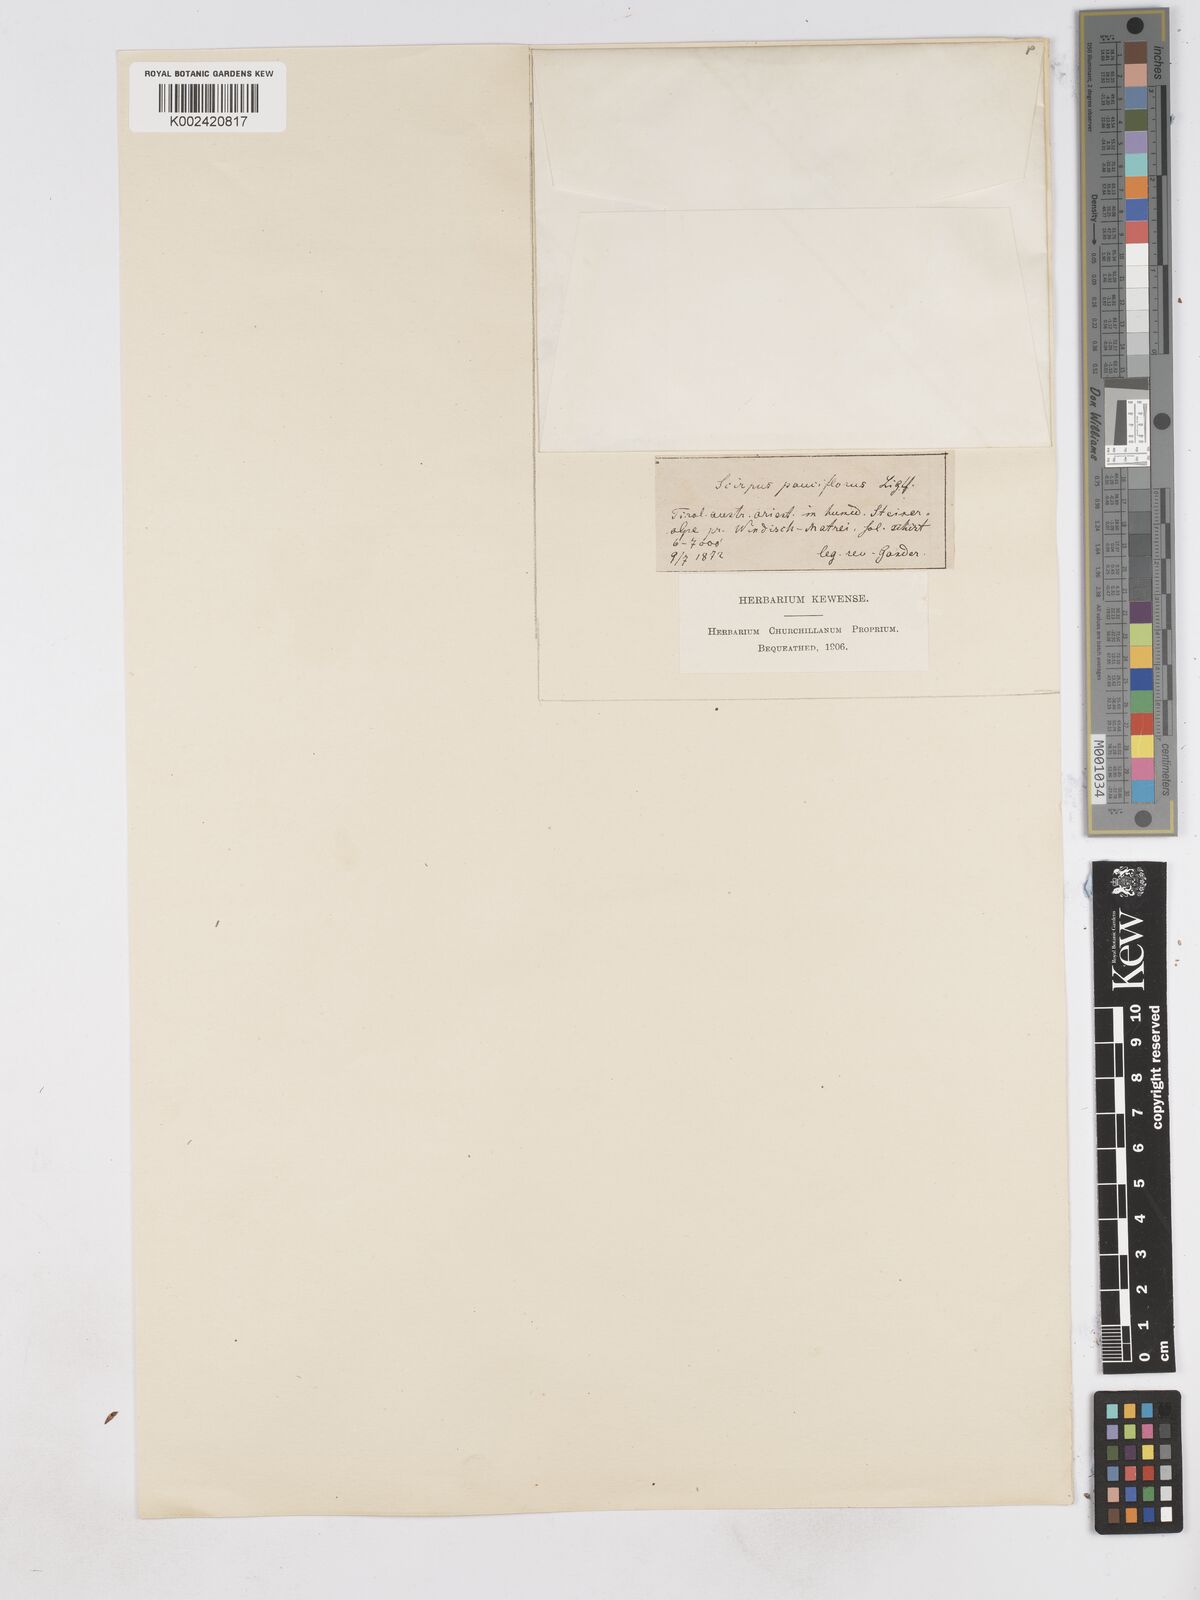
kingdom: Plantae
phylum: Tracheophyta
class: Liliopsida
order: Poales
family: Cyperaceae
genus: Eleocharis
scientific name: Eleocharis quinqueflora
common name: Few-flowered spike-rush
